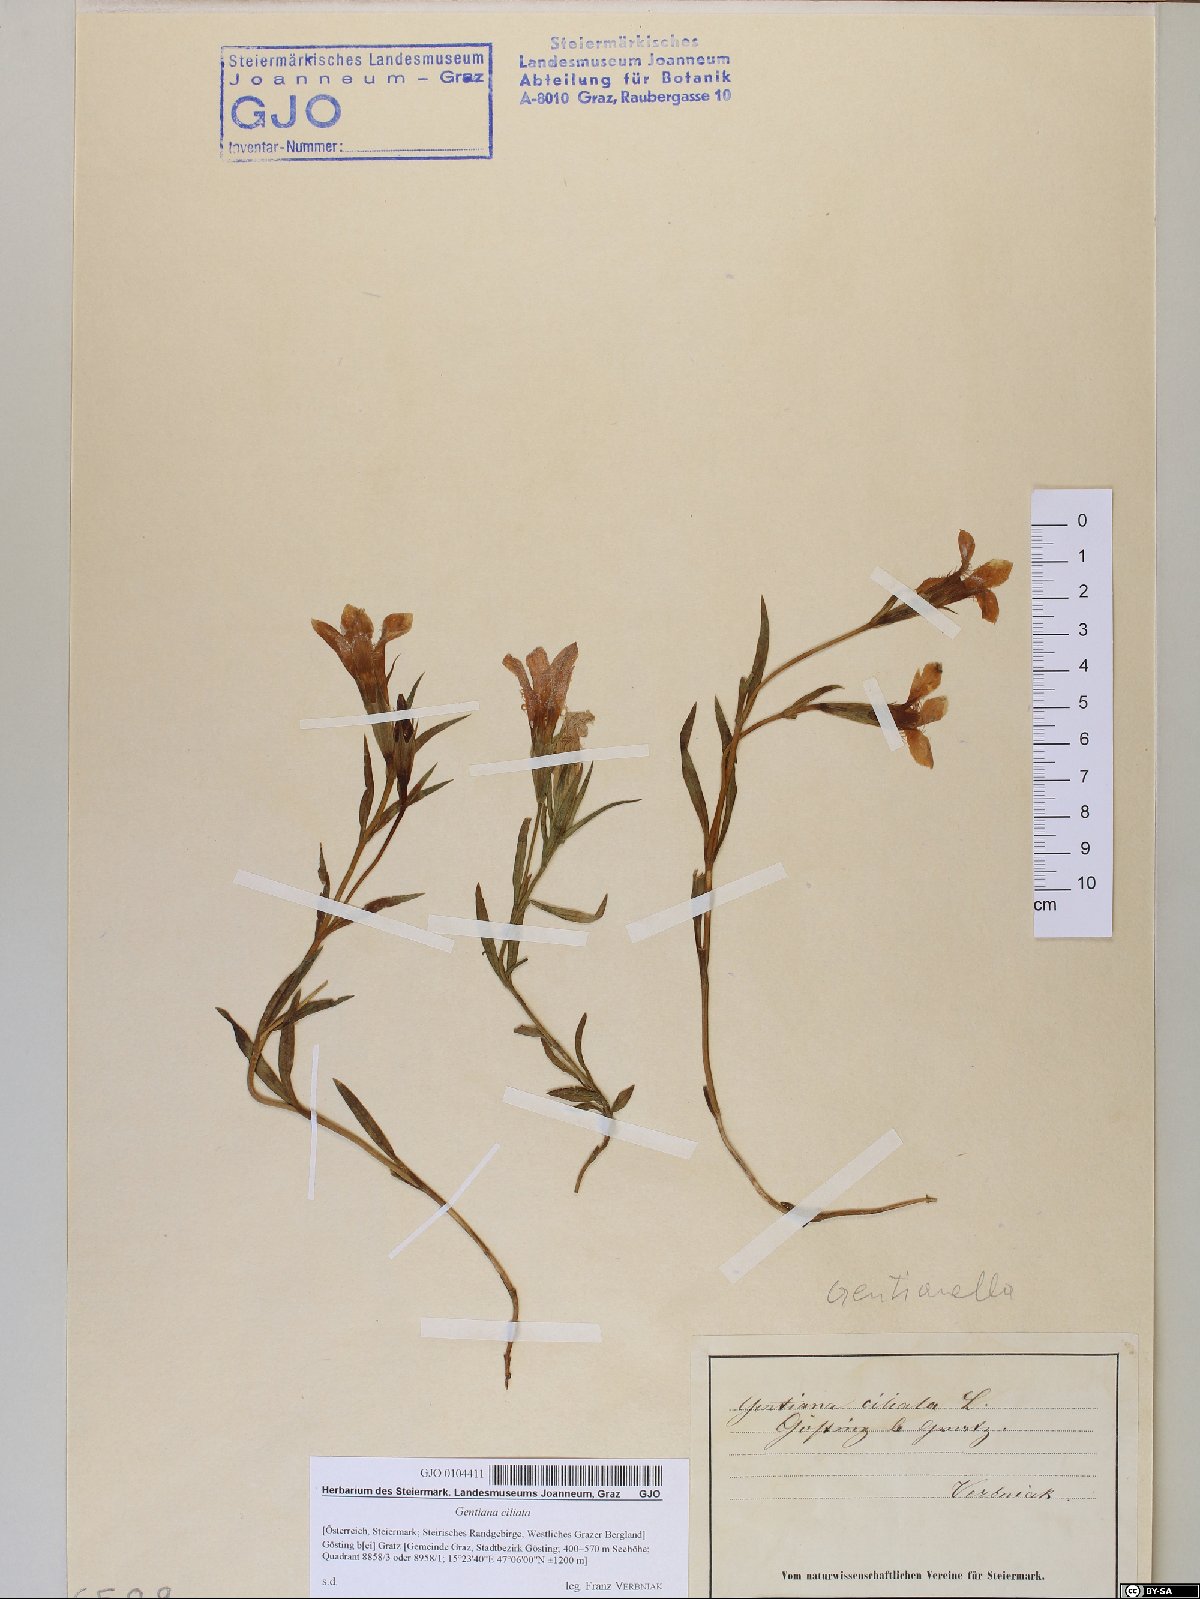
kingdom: Plantae
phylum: Tracheophyta
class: Magnoliopsida
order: Gentianales
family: Gentianaceae
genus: Gentianopsis
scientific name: Gentianopsis ciliata
